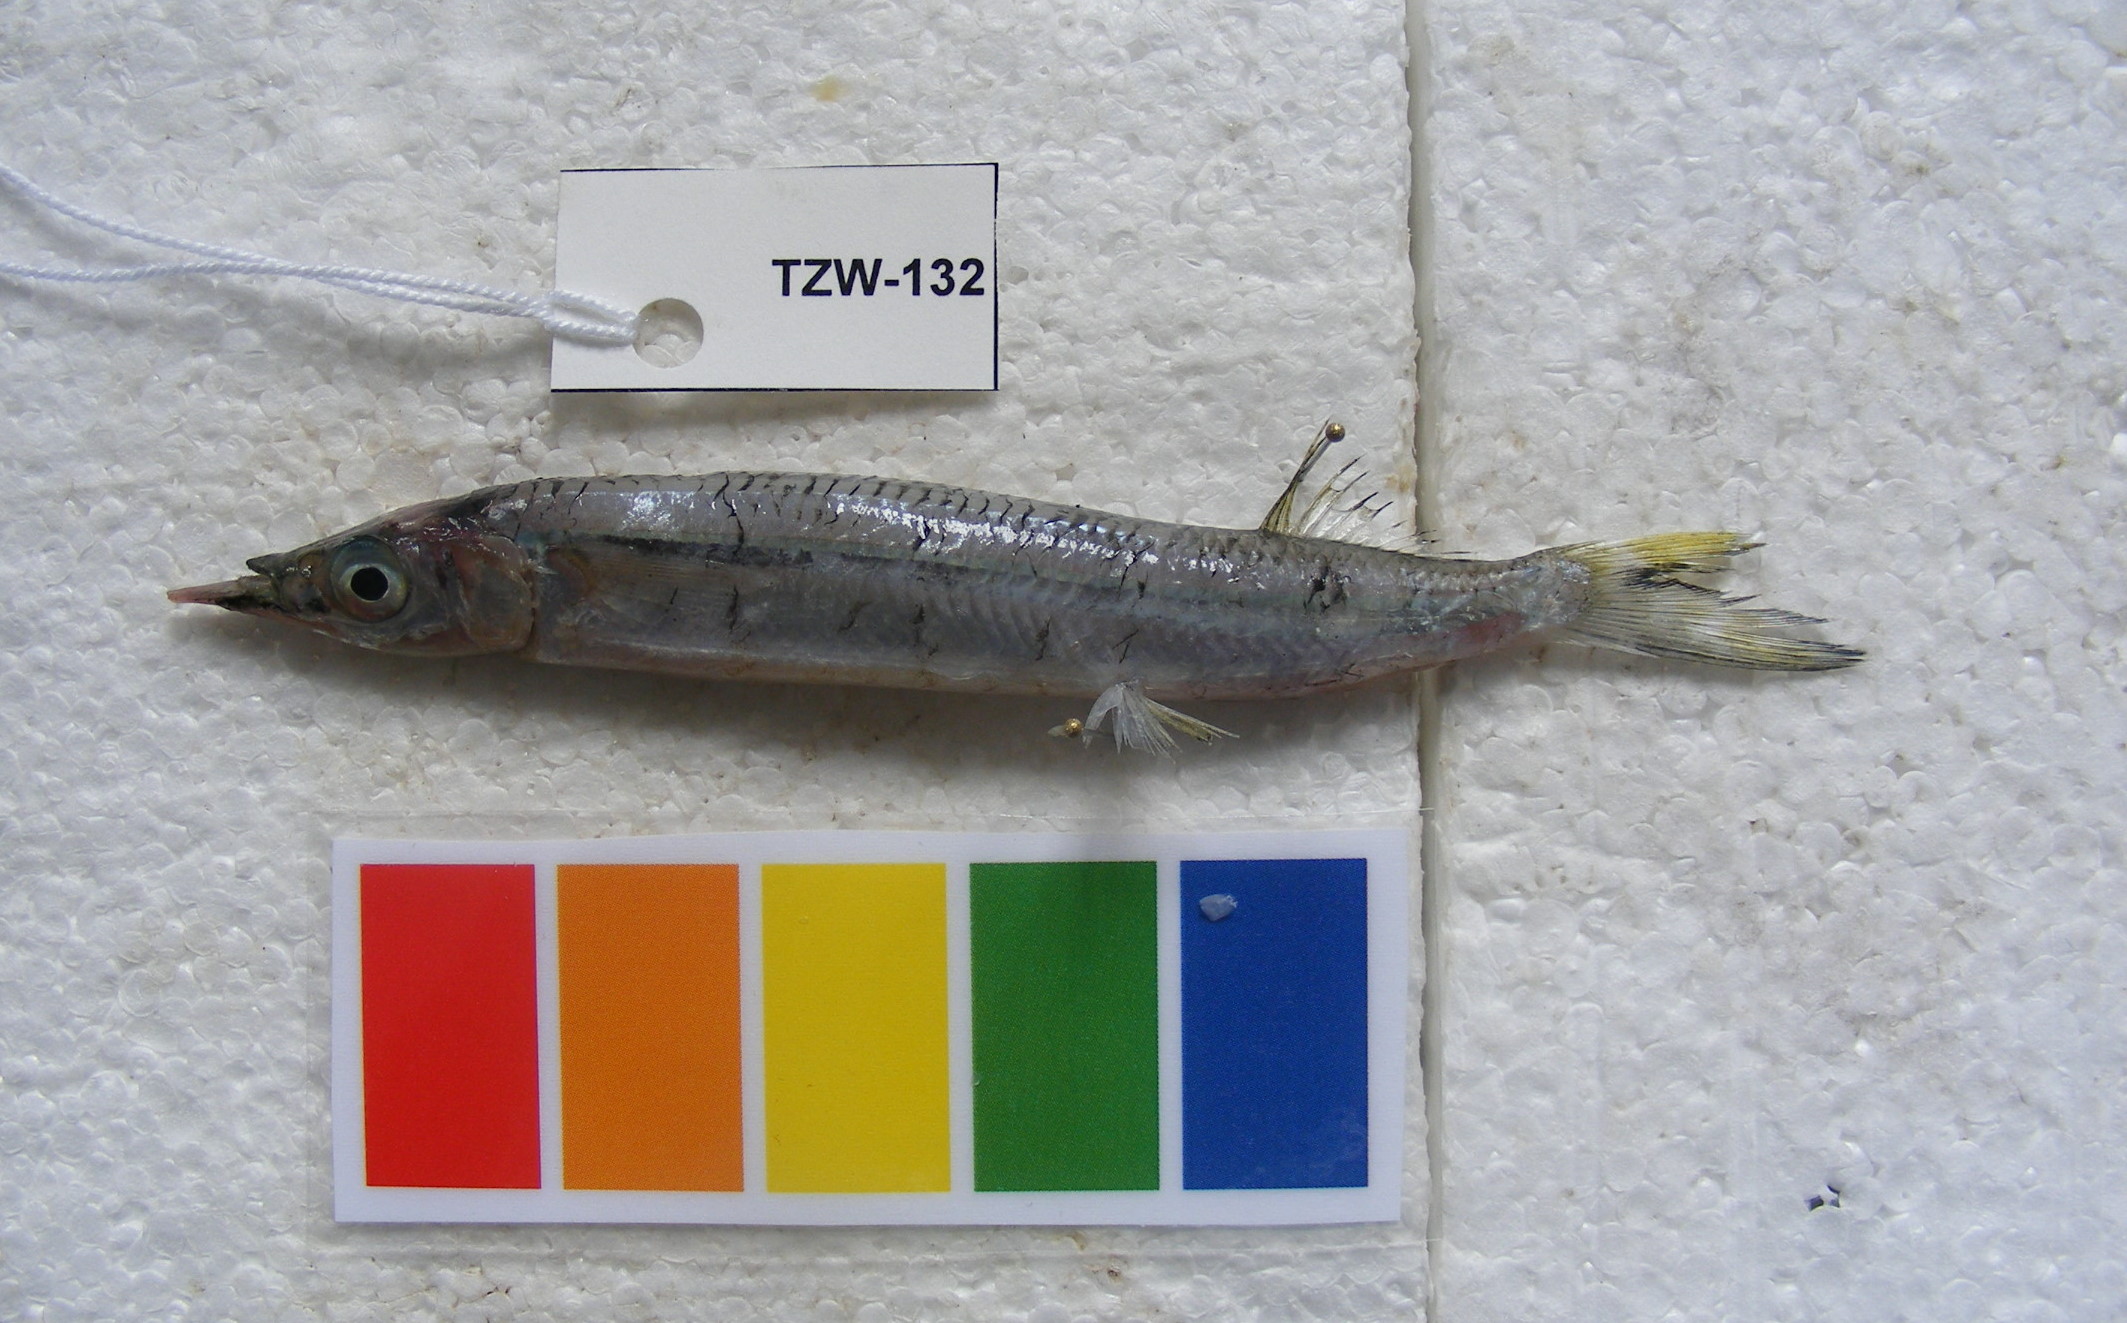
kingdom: Animalia
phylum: Chordata
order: Beloniformes
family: Hemiramphidae
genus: Hemiramphus
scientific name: Hemiramphus far
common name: Black-barred halfbeak
